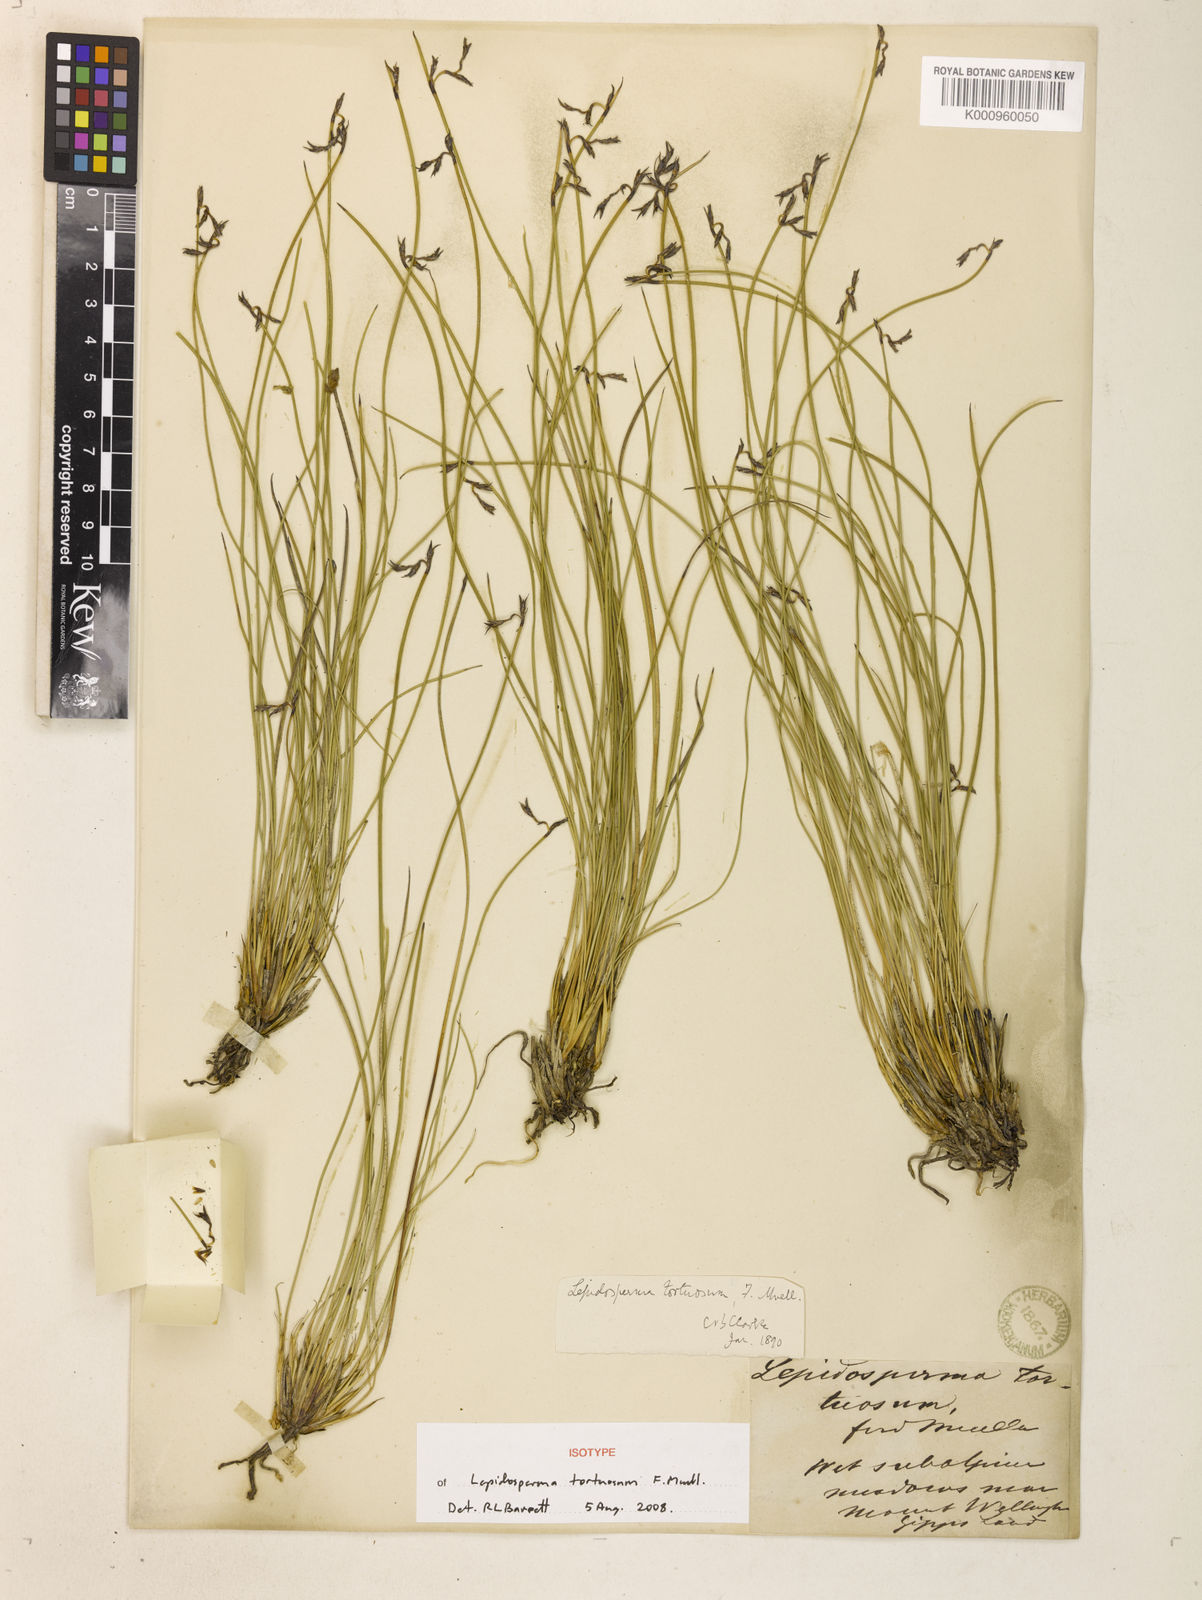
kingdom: Plantae
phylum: Tracheophyta
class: Liliopsida
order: Poales
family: Cyperaceae
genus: Lepidosperma
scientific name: Lepidosperma tortuosum
